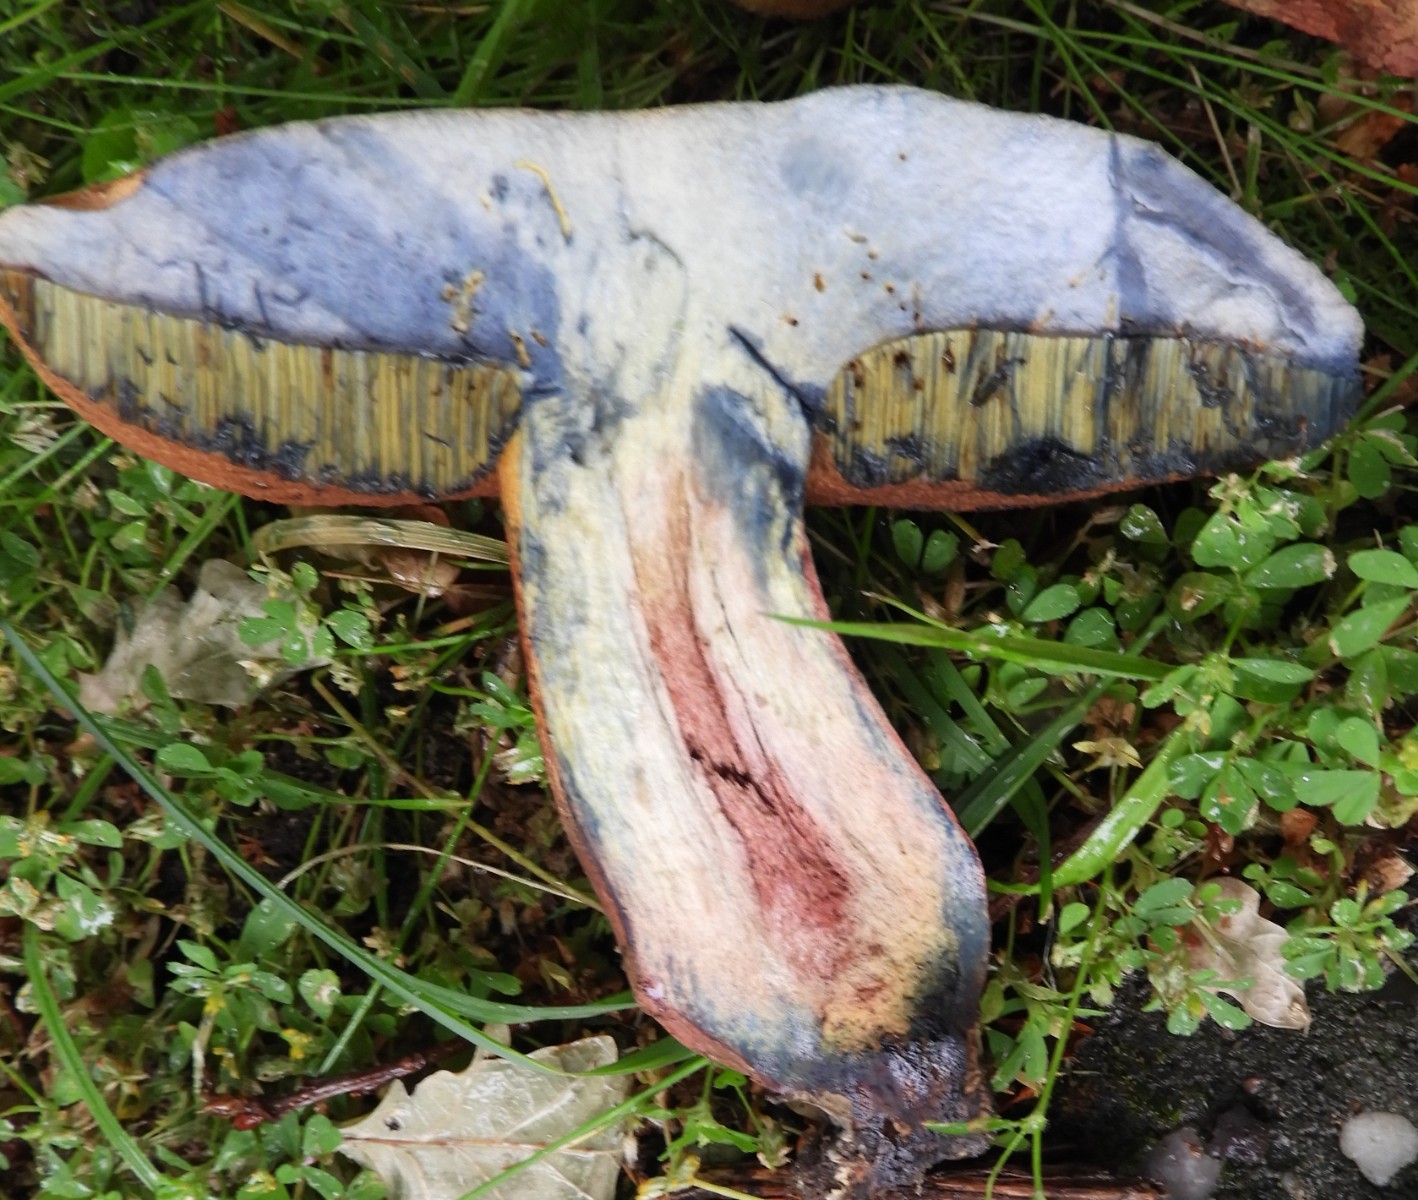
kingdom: Fungi
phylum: Basidiomycota
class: Agaricomycetes
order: Boletales
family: Boletaceae
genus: Suillellus
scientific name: Suillellus luridus
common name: netstokket indigorørhat
